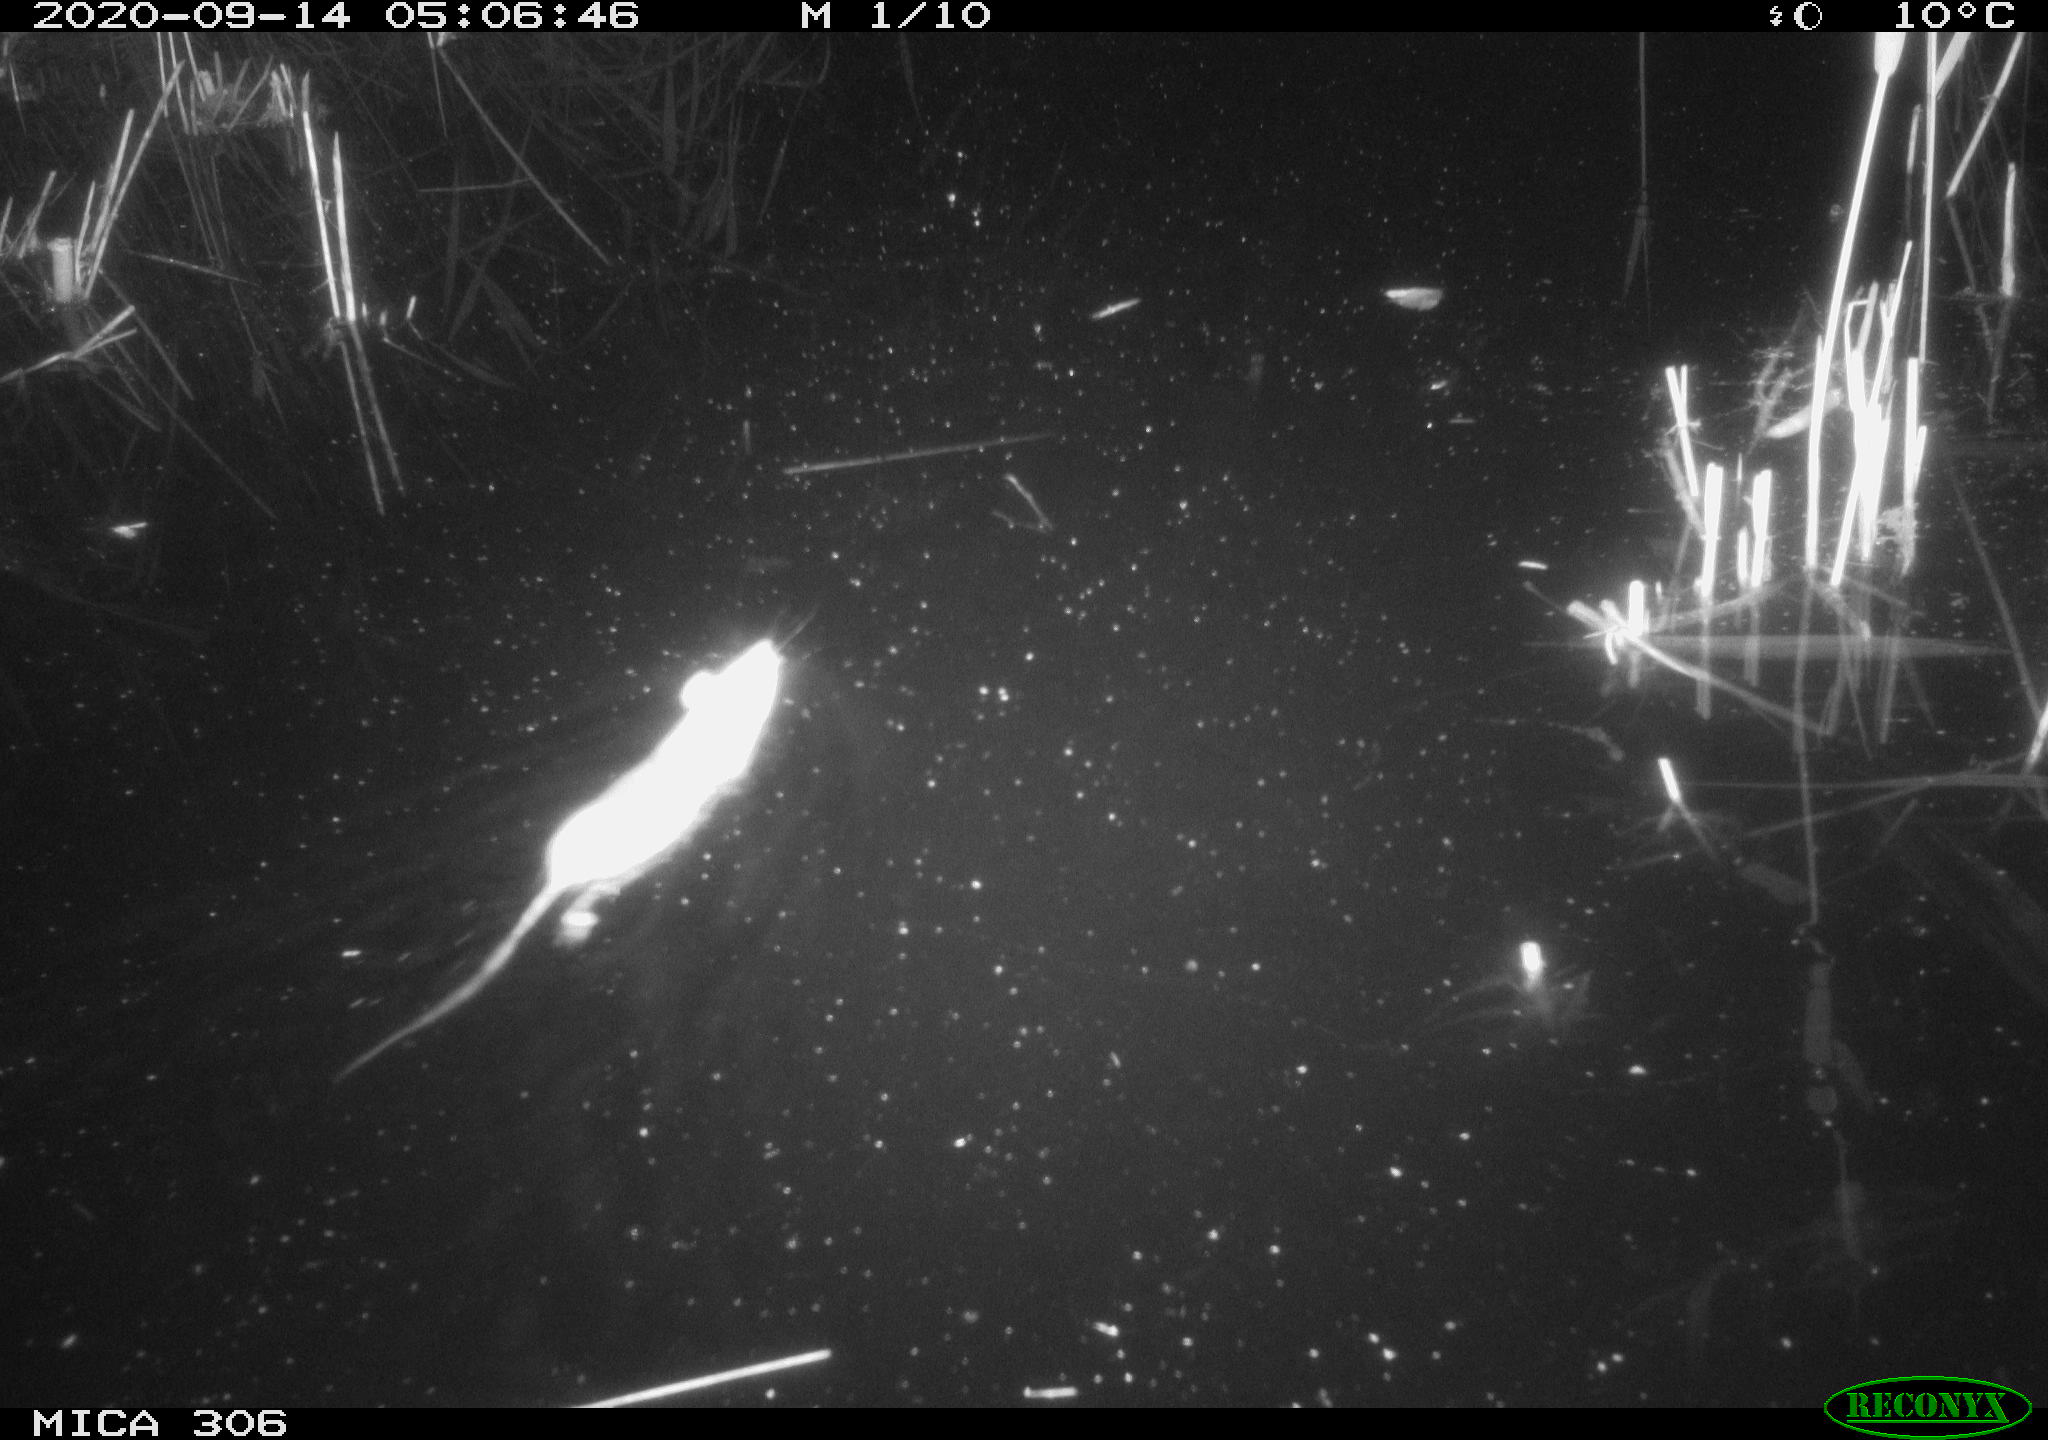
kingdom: Animalia
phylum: Chordata
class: Mammalia
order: Rodentia
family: Cricetidae
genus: Ondatra
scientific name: Ondatra zibethicus
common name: Muskrat
